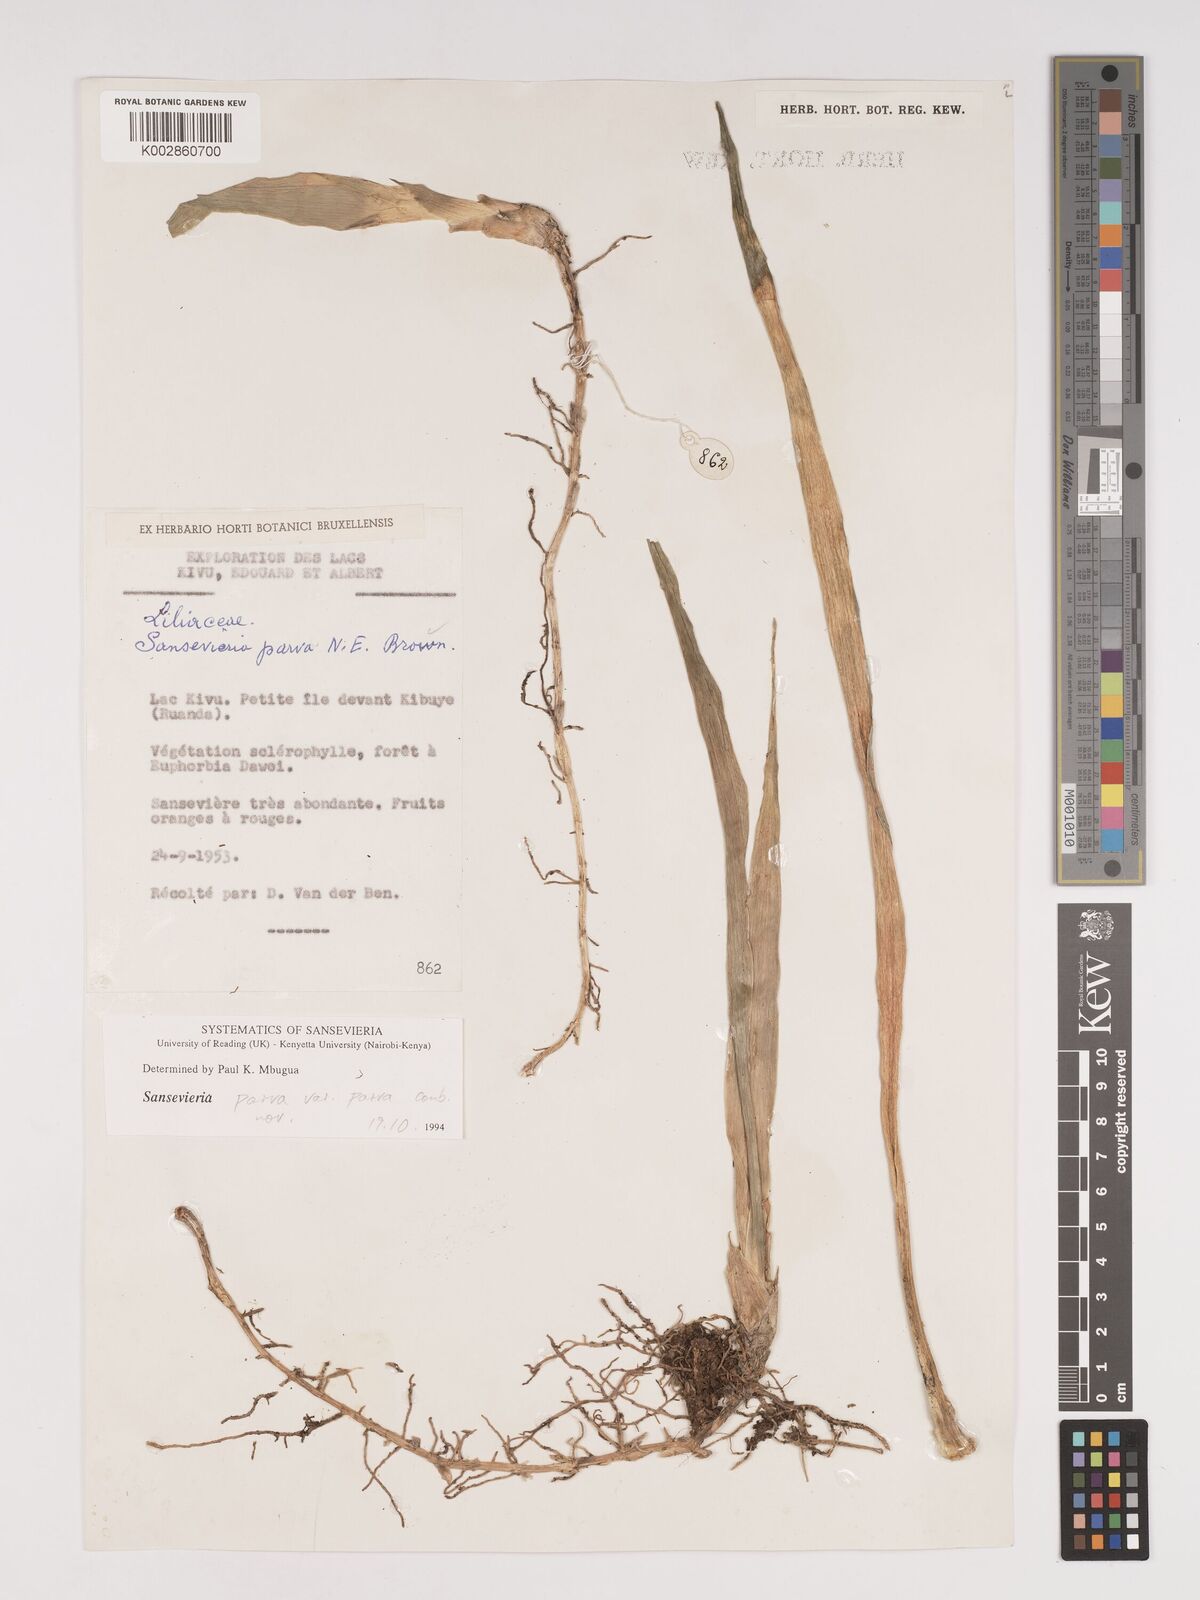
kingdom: Plantae
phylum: Tracheophyta
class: Liliopsida
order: Asparagales
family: Asparagaceae
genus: Dracaena
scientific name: Dracaena parva
